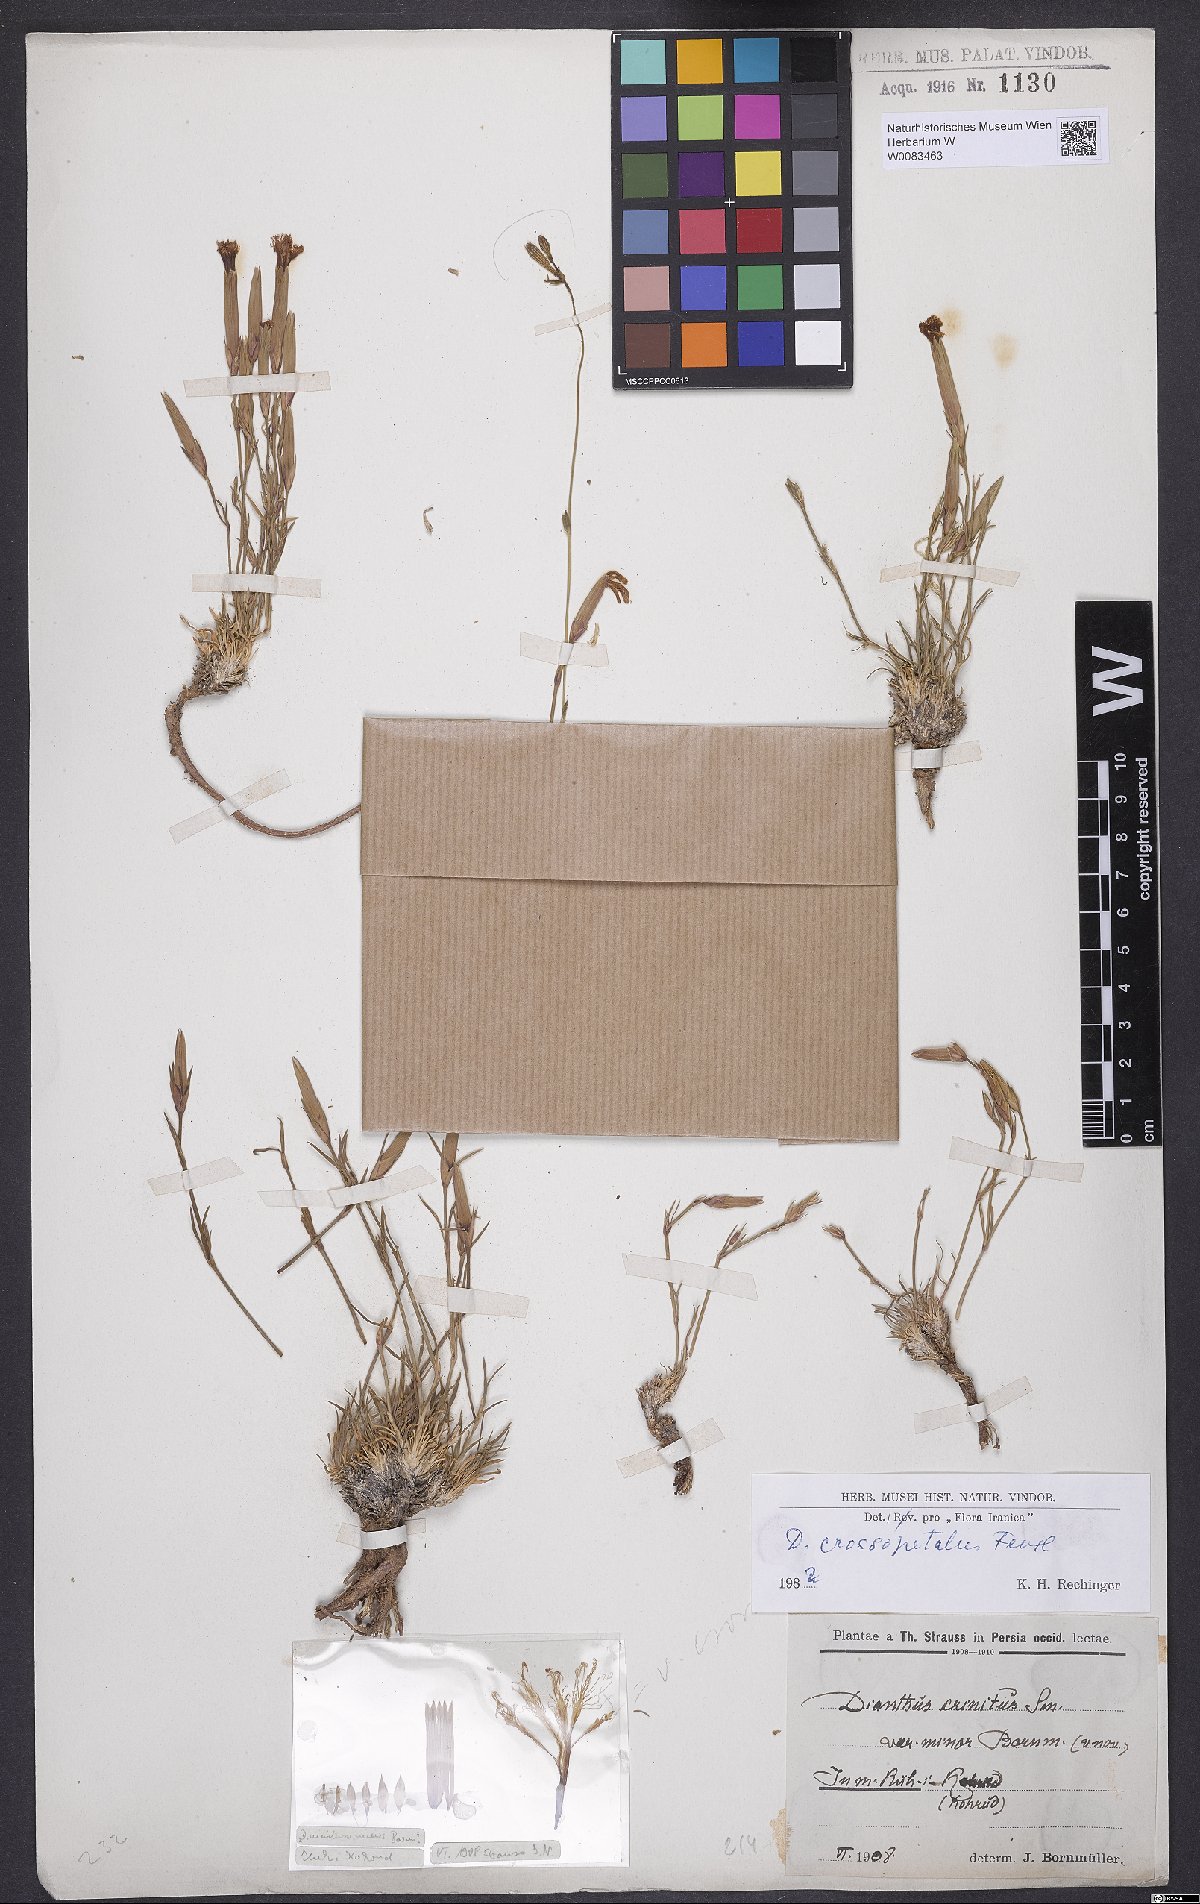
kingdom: Plantae
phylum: Tracheophyta
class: Magnoliopsida
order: Caryophyllales
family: Caryophyllaceae
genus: Dianthus
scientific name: Dianthus crossopetalus
